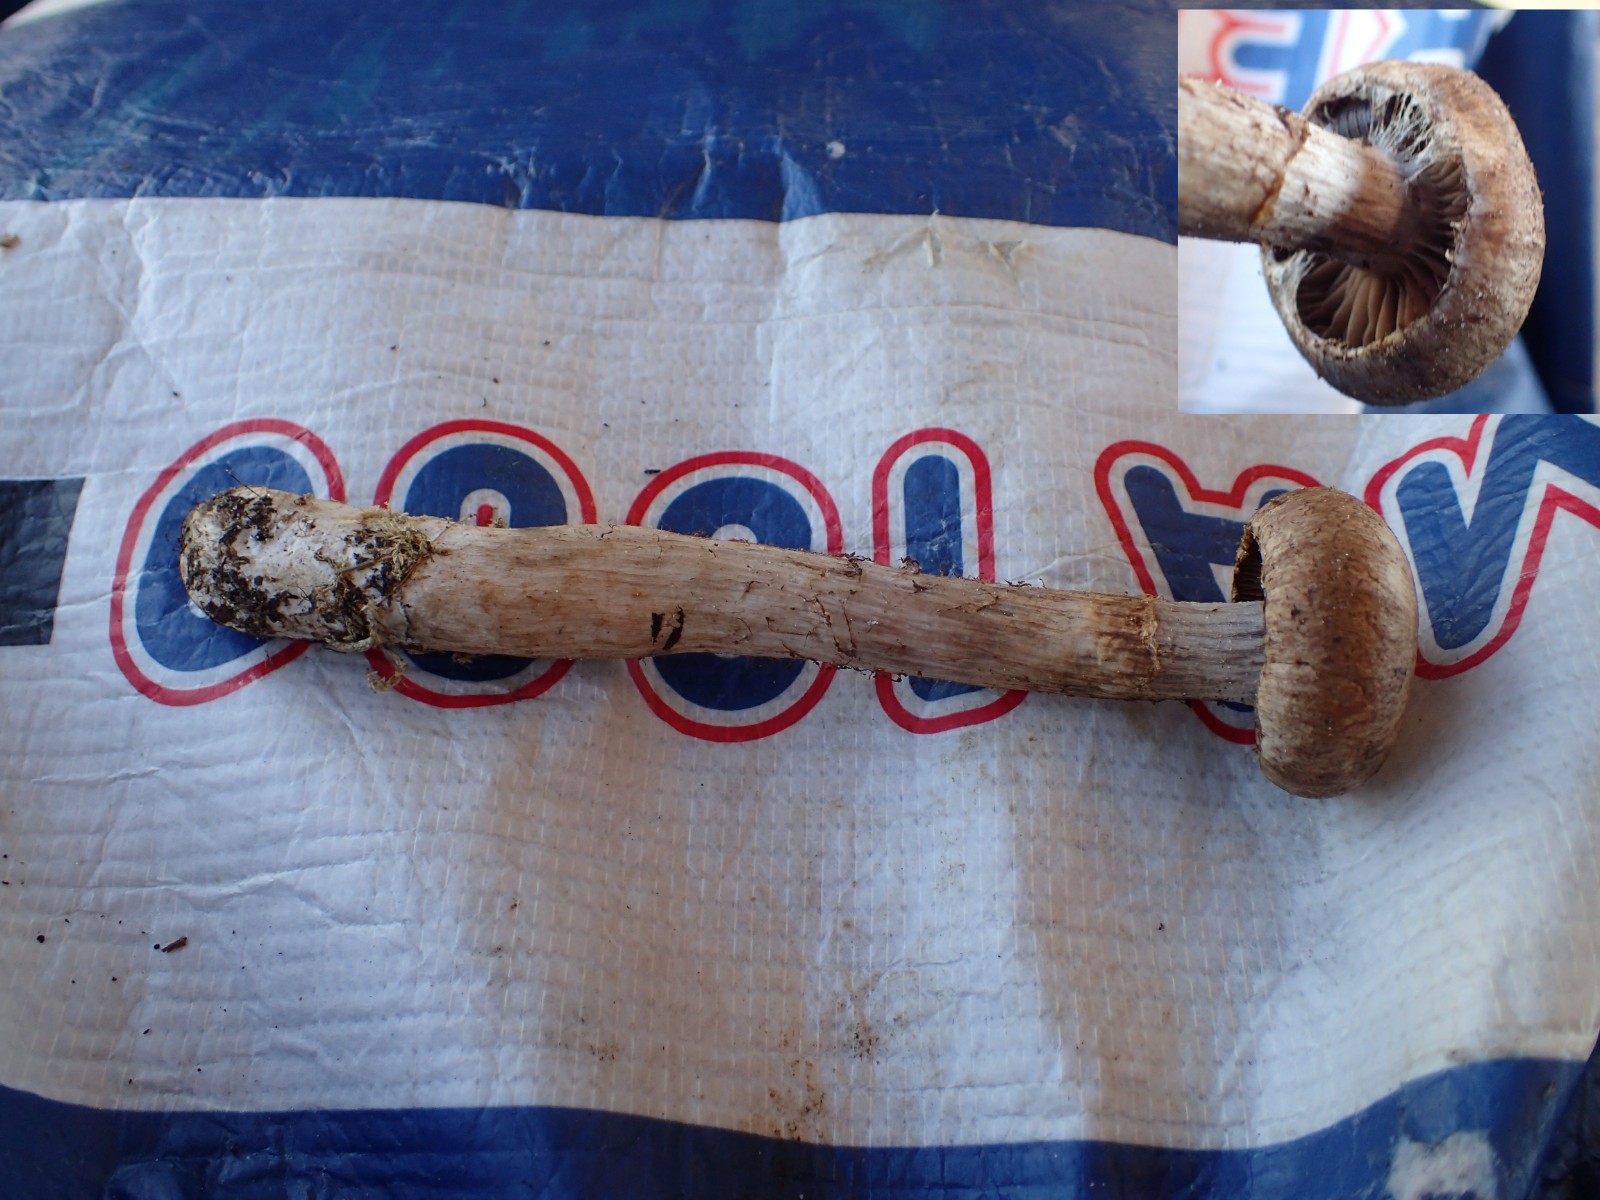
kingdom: Fungi
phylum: Basidiomycota
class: Agaricomycetes
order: Agaricales
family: Cortinariaceae
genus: Cortinarius
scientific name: Cortinarius
